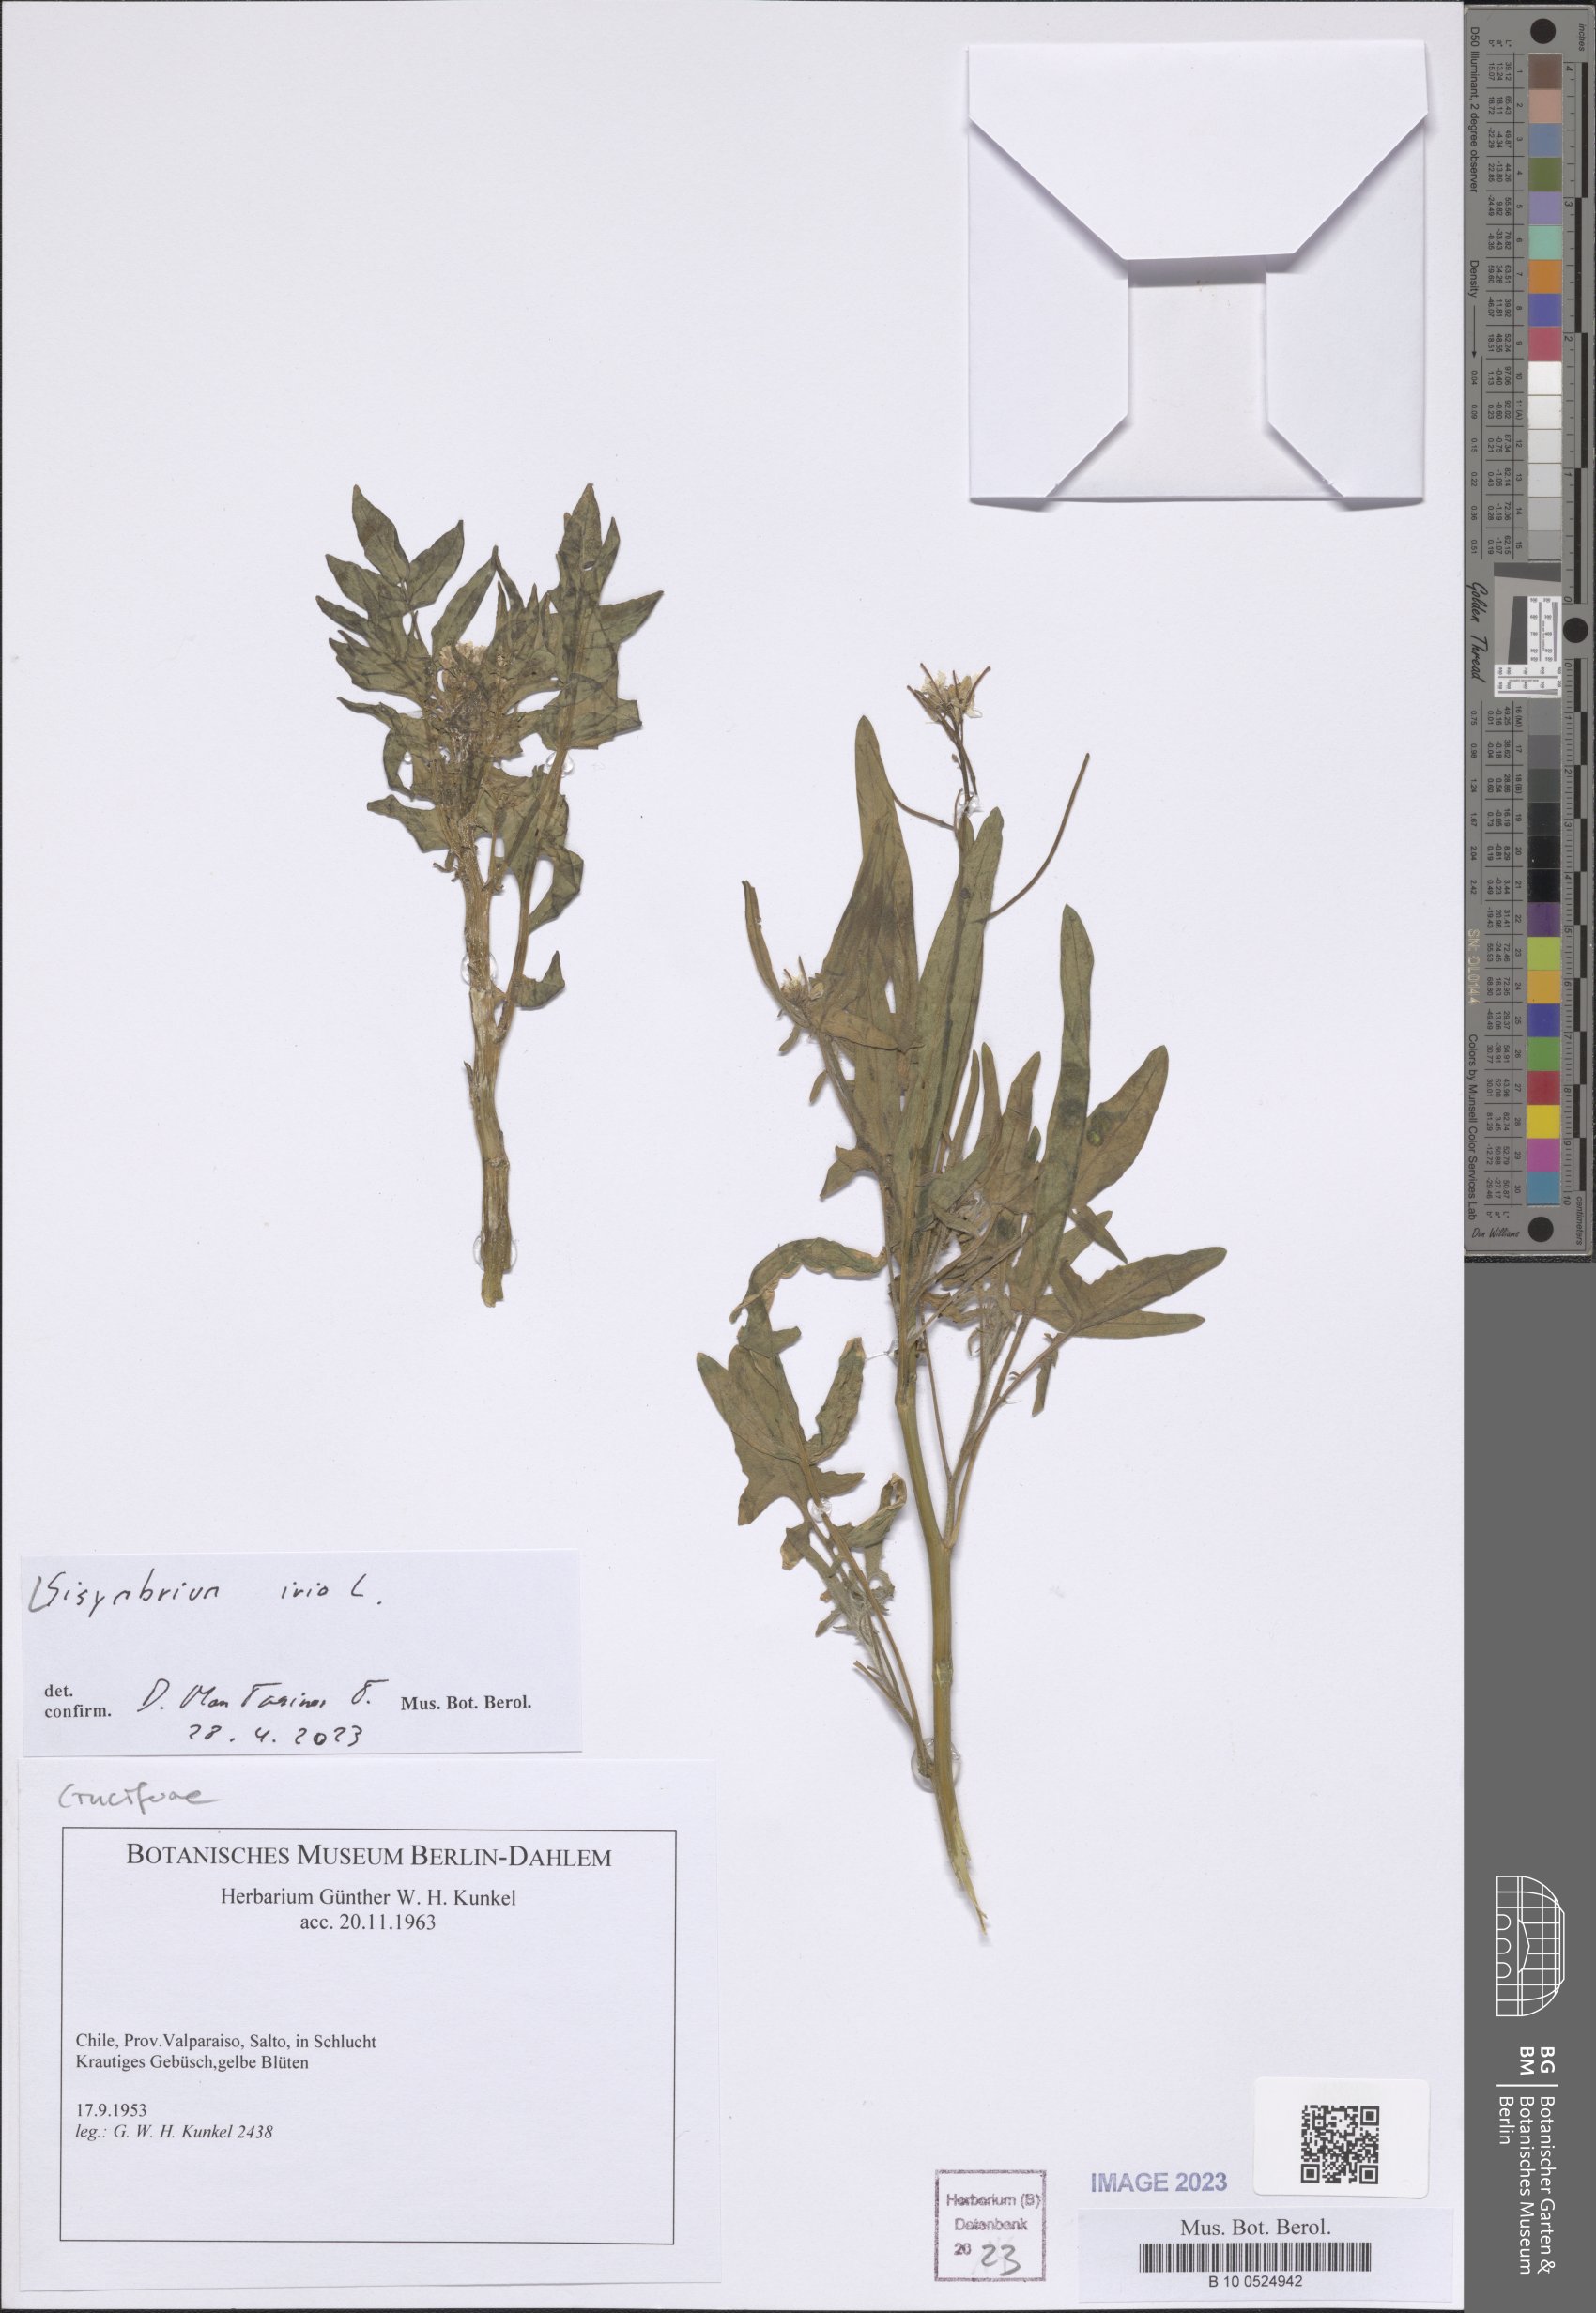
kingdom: Plantae
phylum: Tracheophyta
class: Magnoliopsida
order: Brassicales
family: Brassicaceae
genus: Sisymbrium
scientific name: Sisymbrium irio
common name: London rocket
